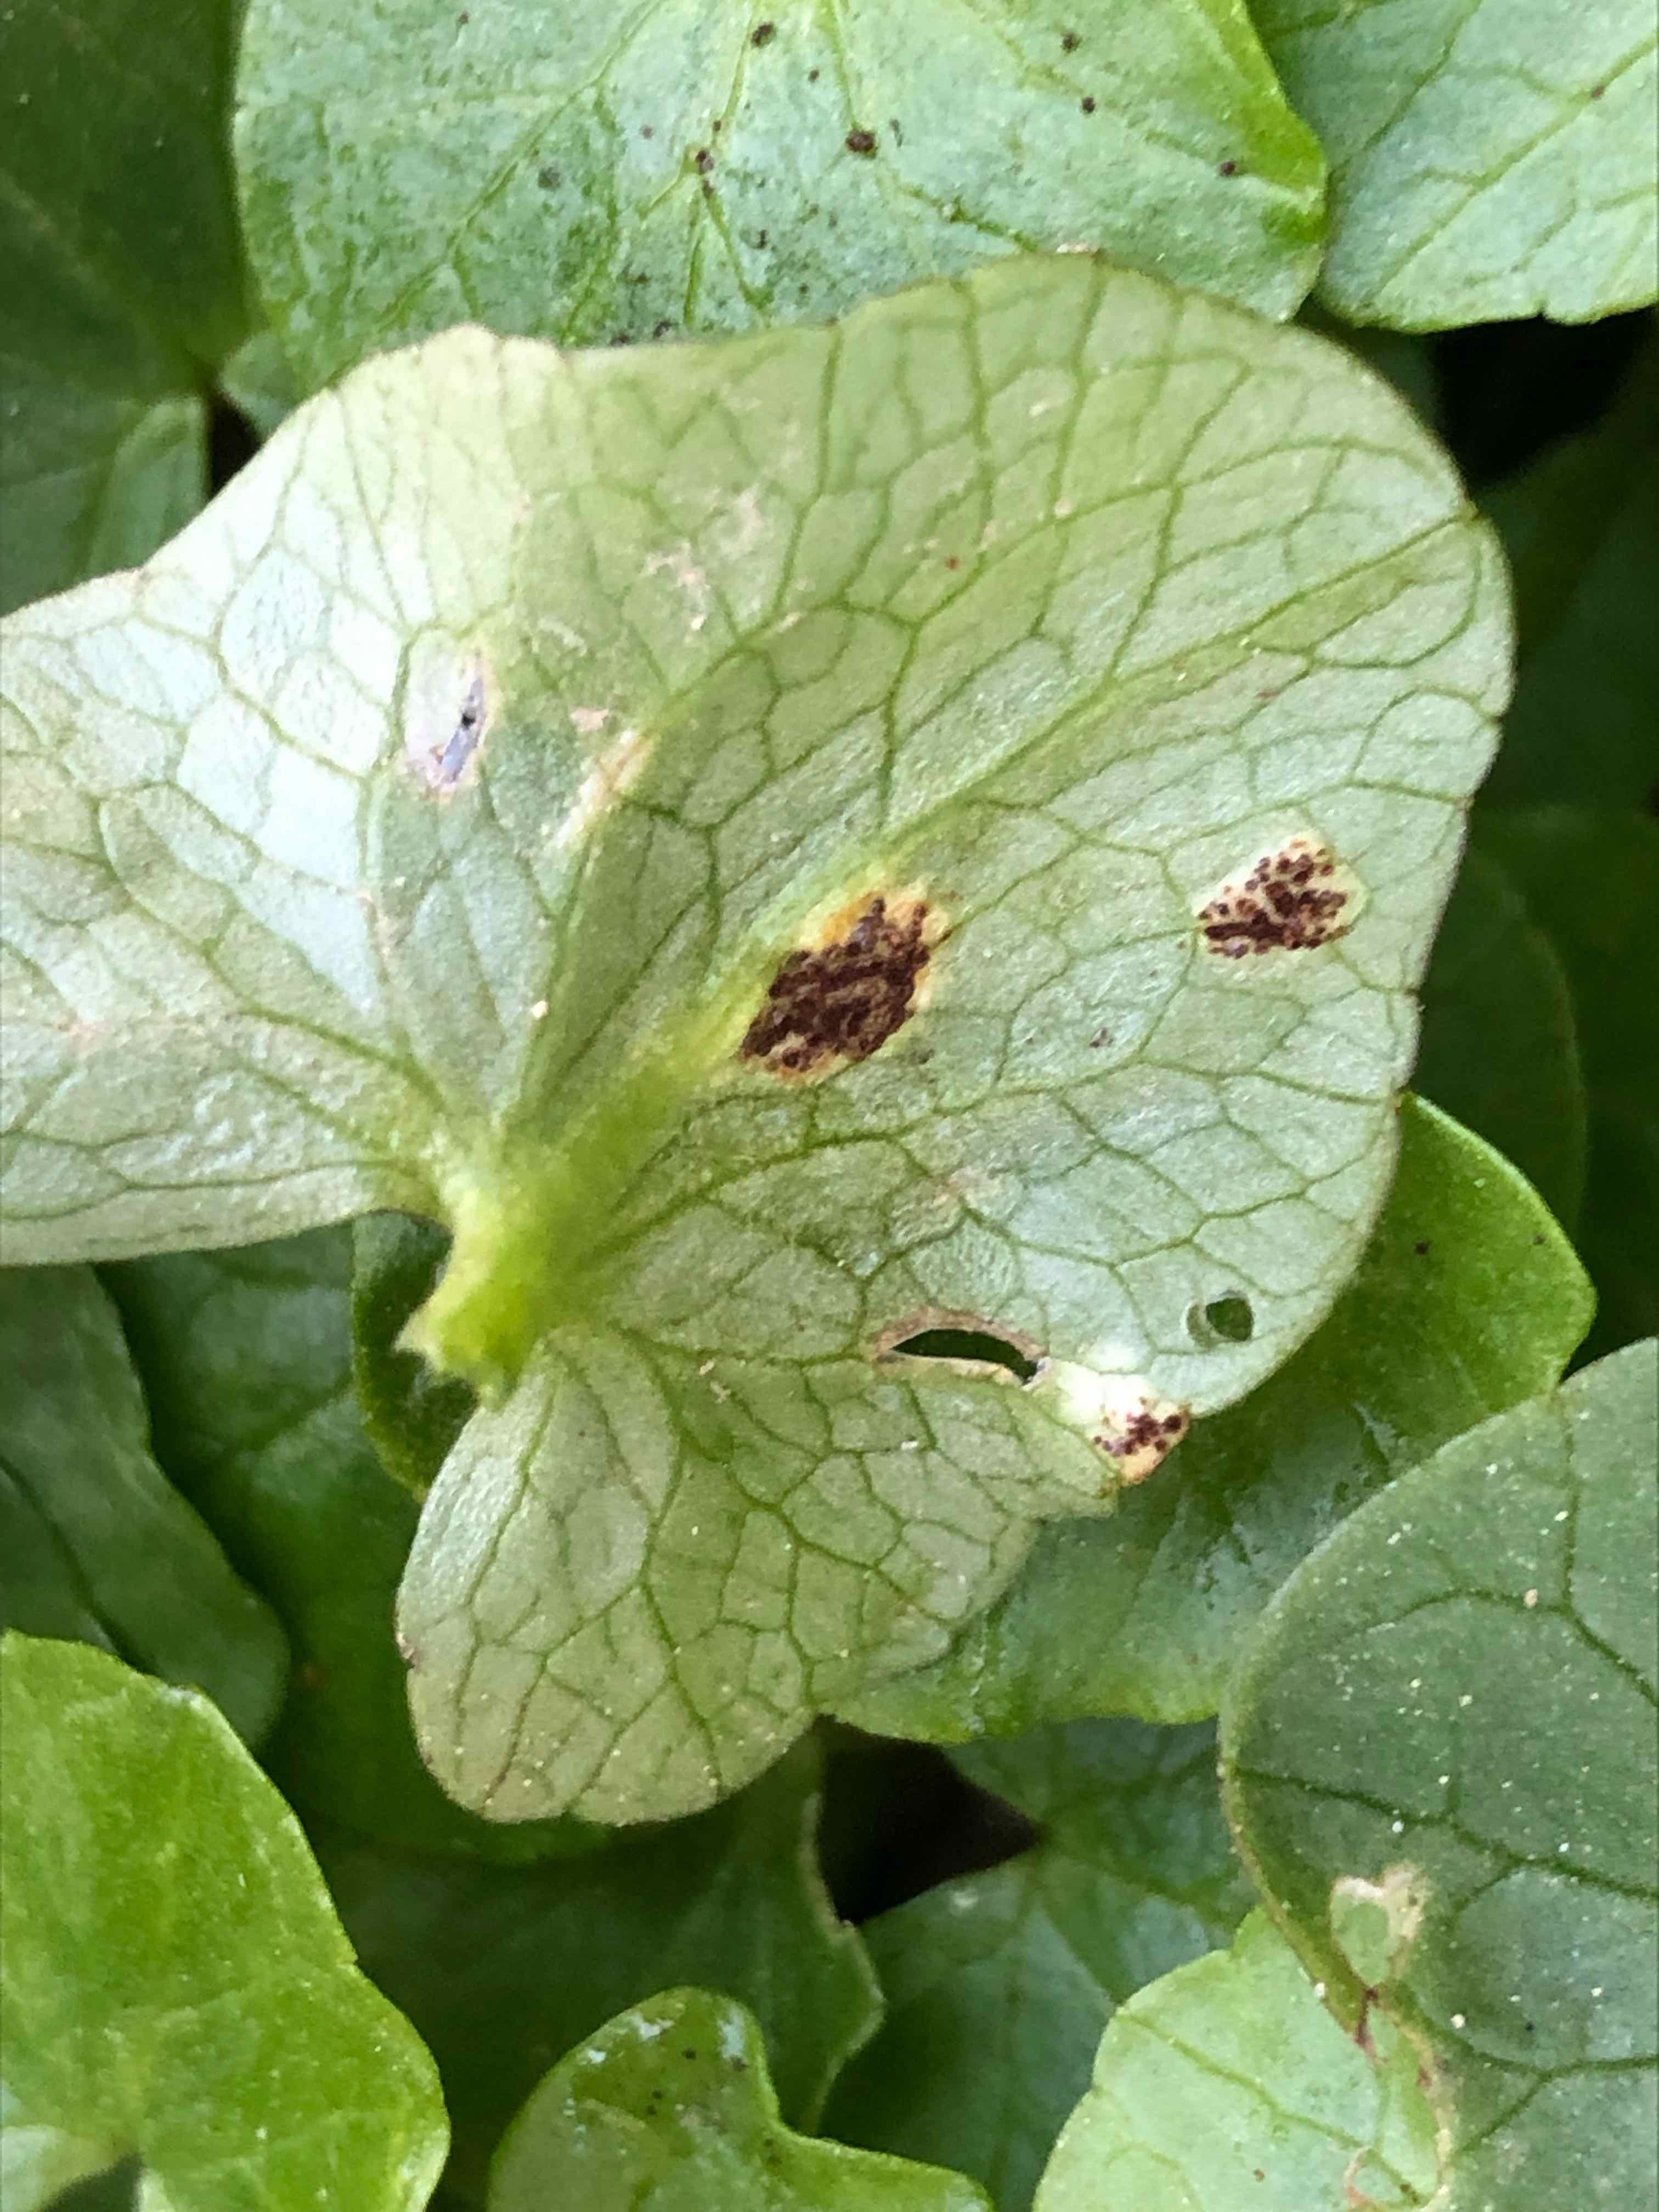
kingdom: Fungi
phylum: Basidiomycota
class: Pucciniomycetes
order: Pucciniales
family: Pucciniaceae
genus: Uromyces
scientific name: Uromyces ficariae
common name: vorterod-encellerust
